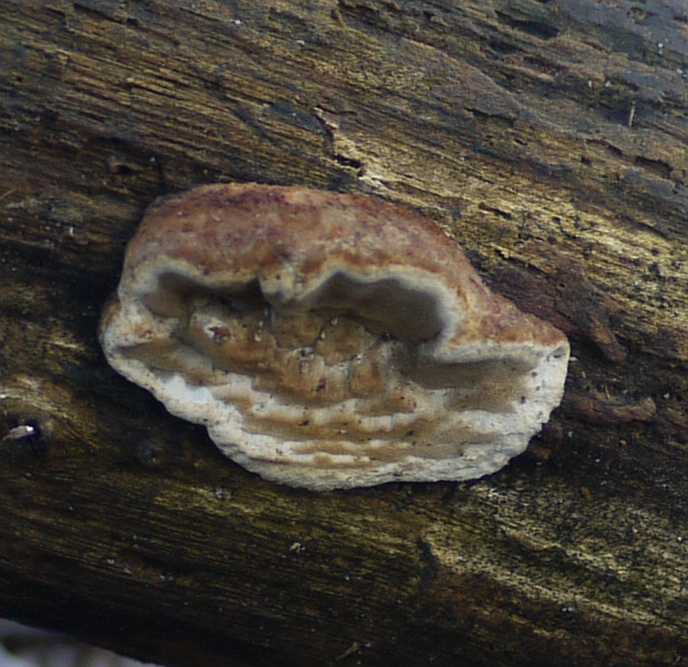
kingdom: Fungi
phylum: Basidiomycota
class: Agaricomycetes
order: Polyporales
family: Incrustoporiaceae
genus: Skeletocutis
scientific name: Skeletocutis nemoralis
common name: stor krystalporesvamp
